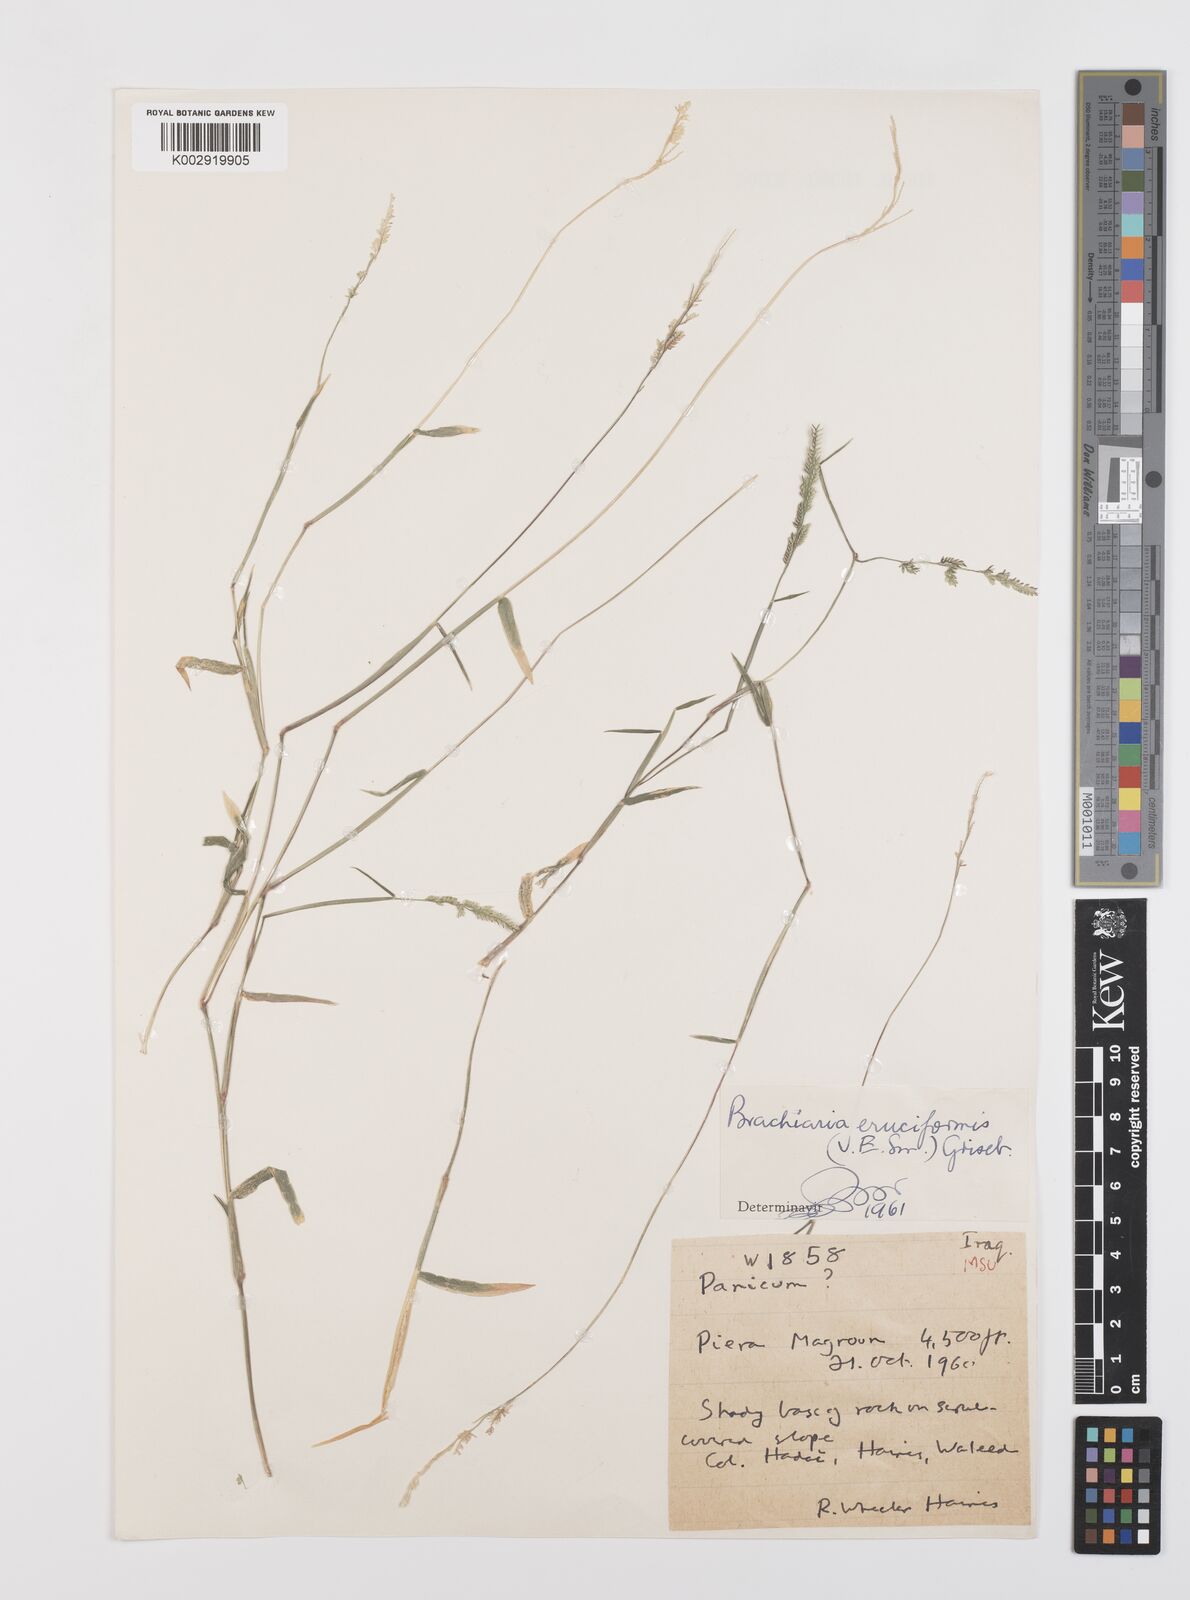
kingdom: Plantae
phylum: Tracheophyta
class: Liliopsida
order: Poales
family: Poaceae
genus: Moorochloa
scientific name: Moorochloa eruciformis
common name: Sweet signalgrass
